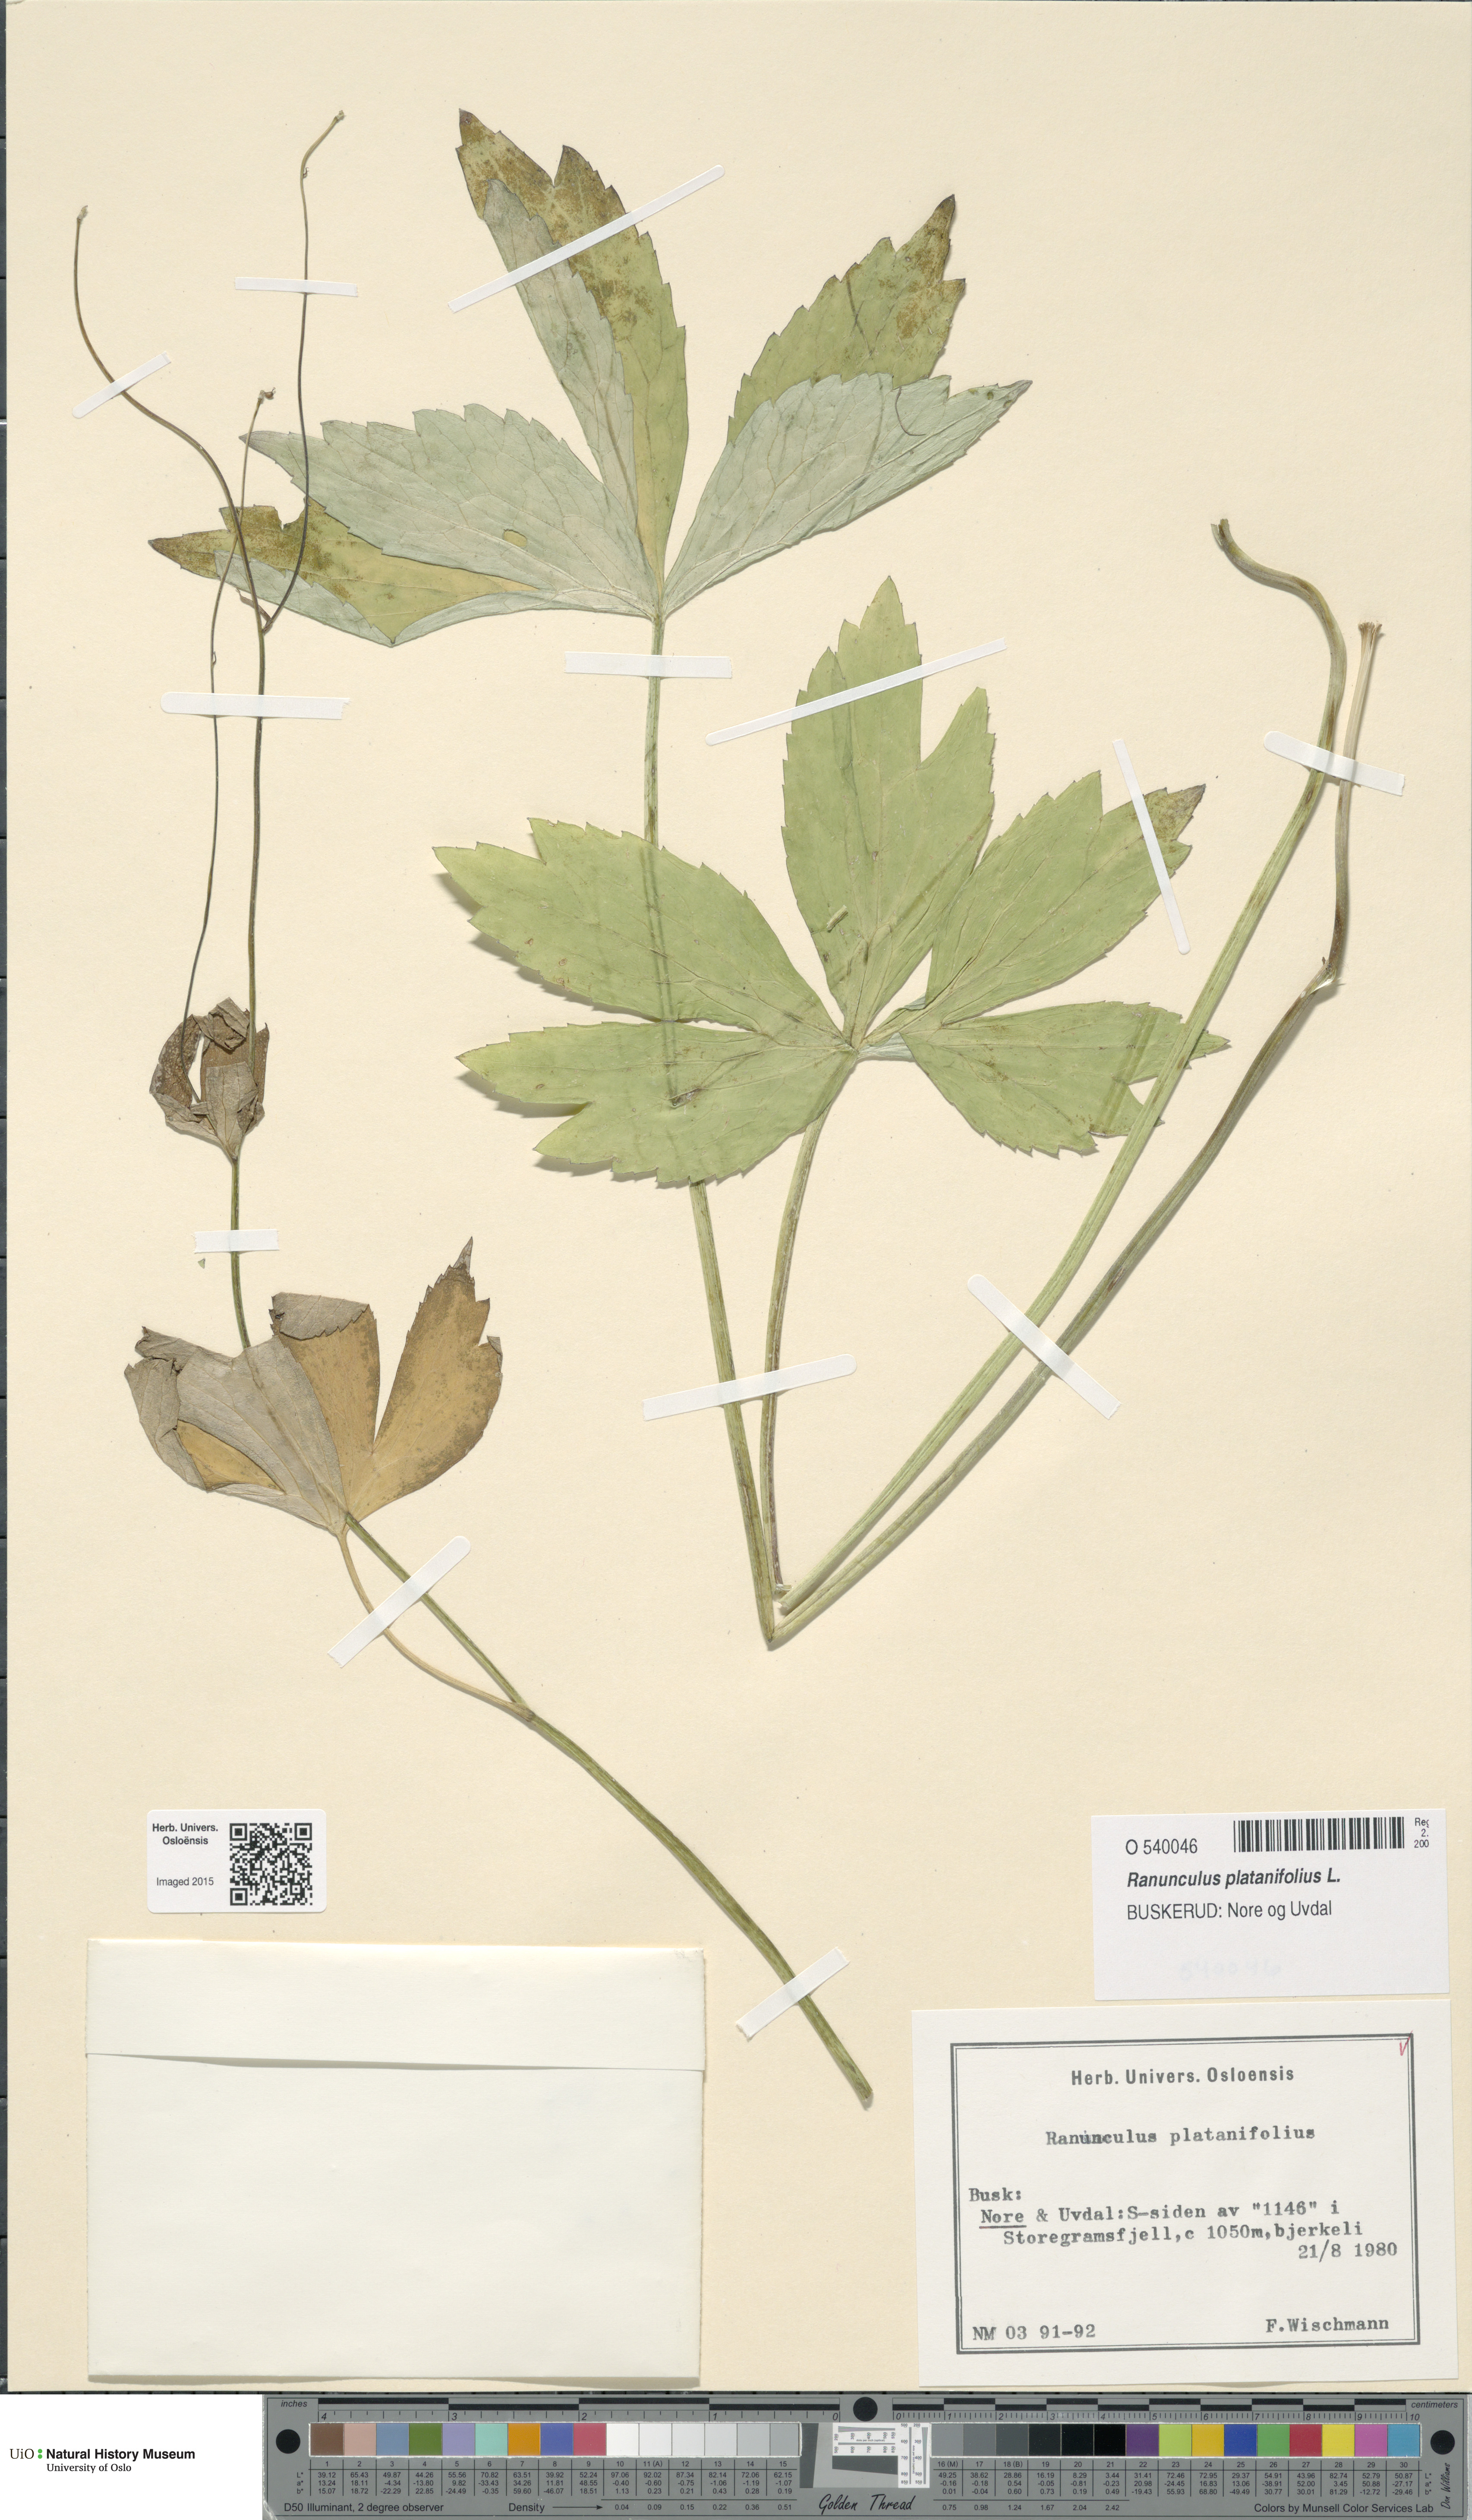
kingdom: Plantae
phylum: Tracheophyta
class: Magnoliopsida
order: Ranunculales
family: Ranunculaceae
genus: Ranunculus
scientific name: Ranunculus platanifolius
